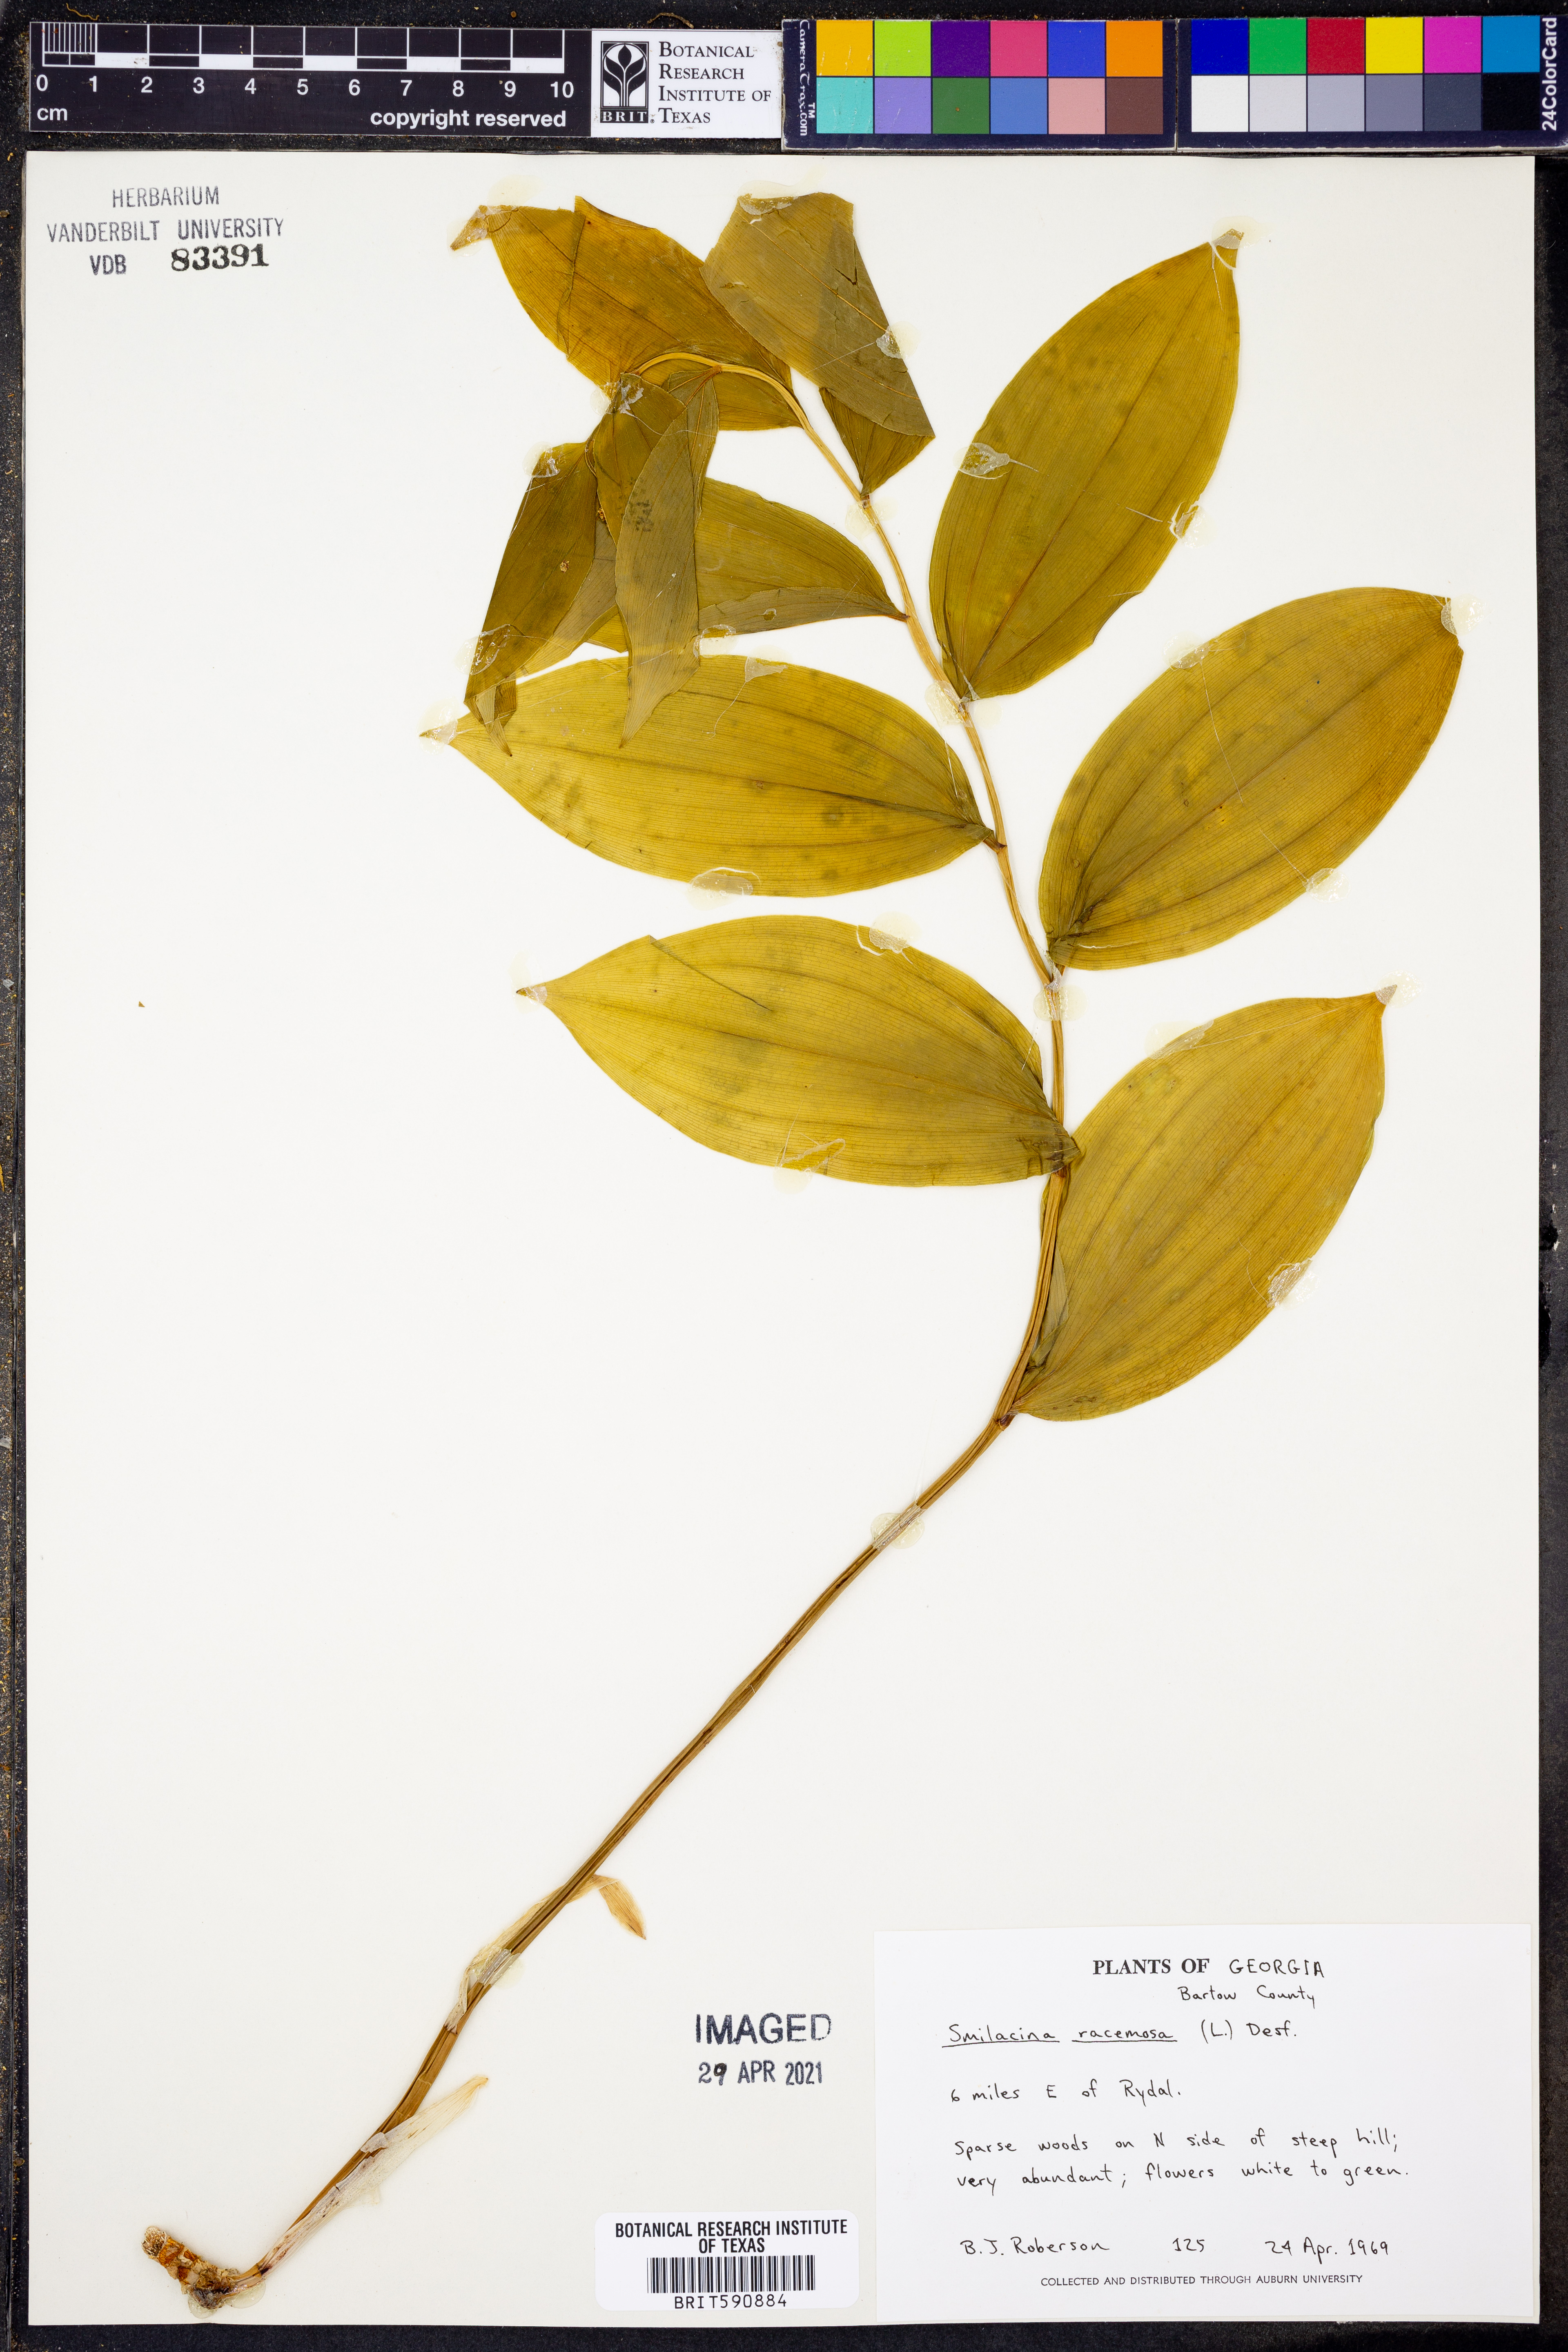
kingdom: Plantae
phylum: Tracheophyta
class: Liliopsida
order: Asparagales
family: Asparagaceae
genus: Maianthemum
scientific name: Maianthemum racemosum
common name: False spikenard
